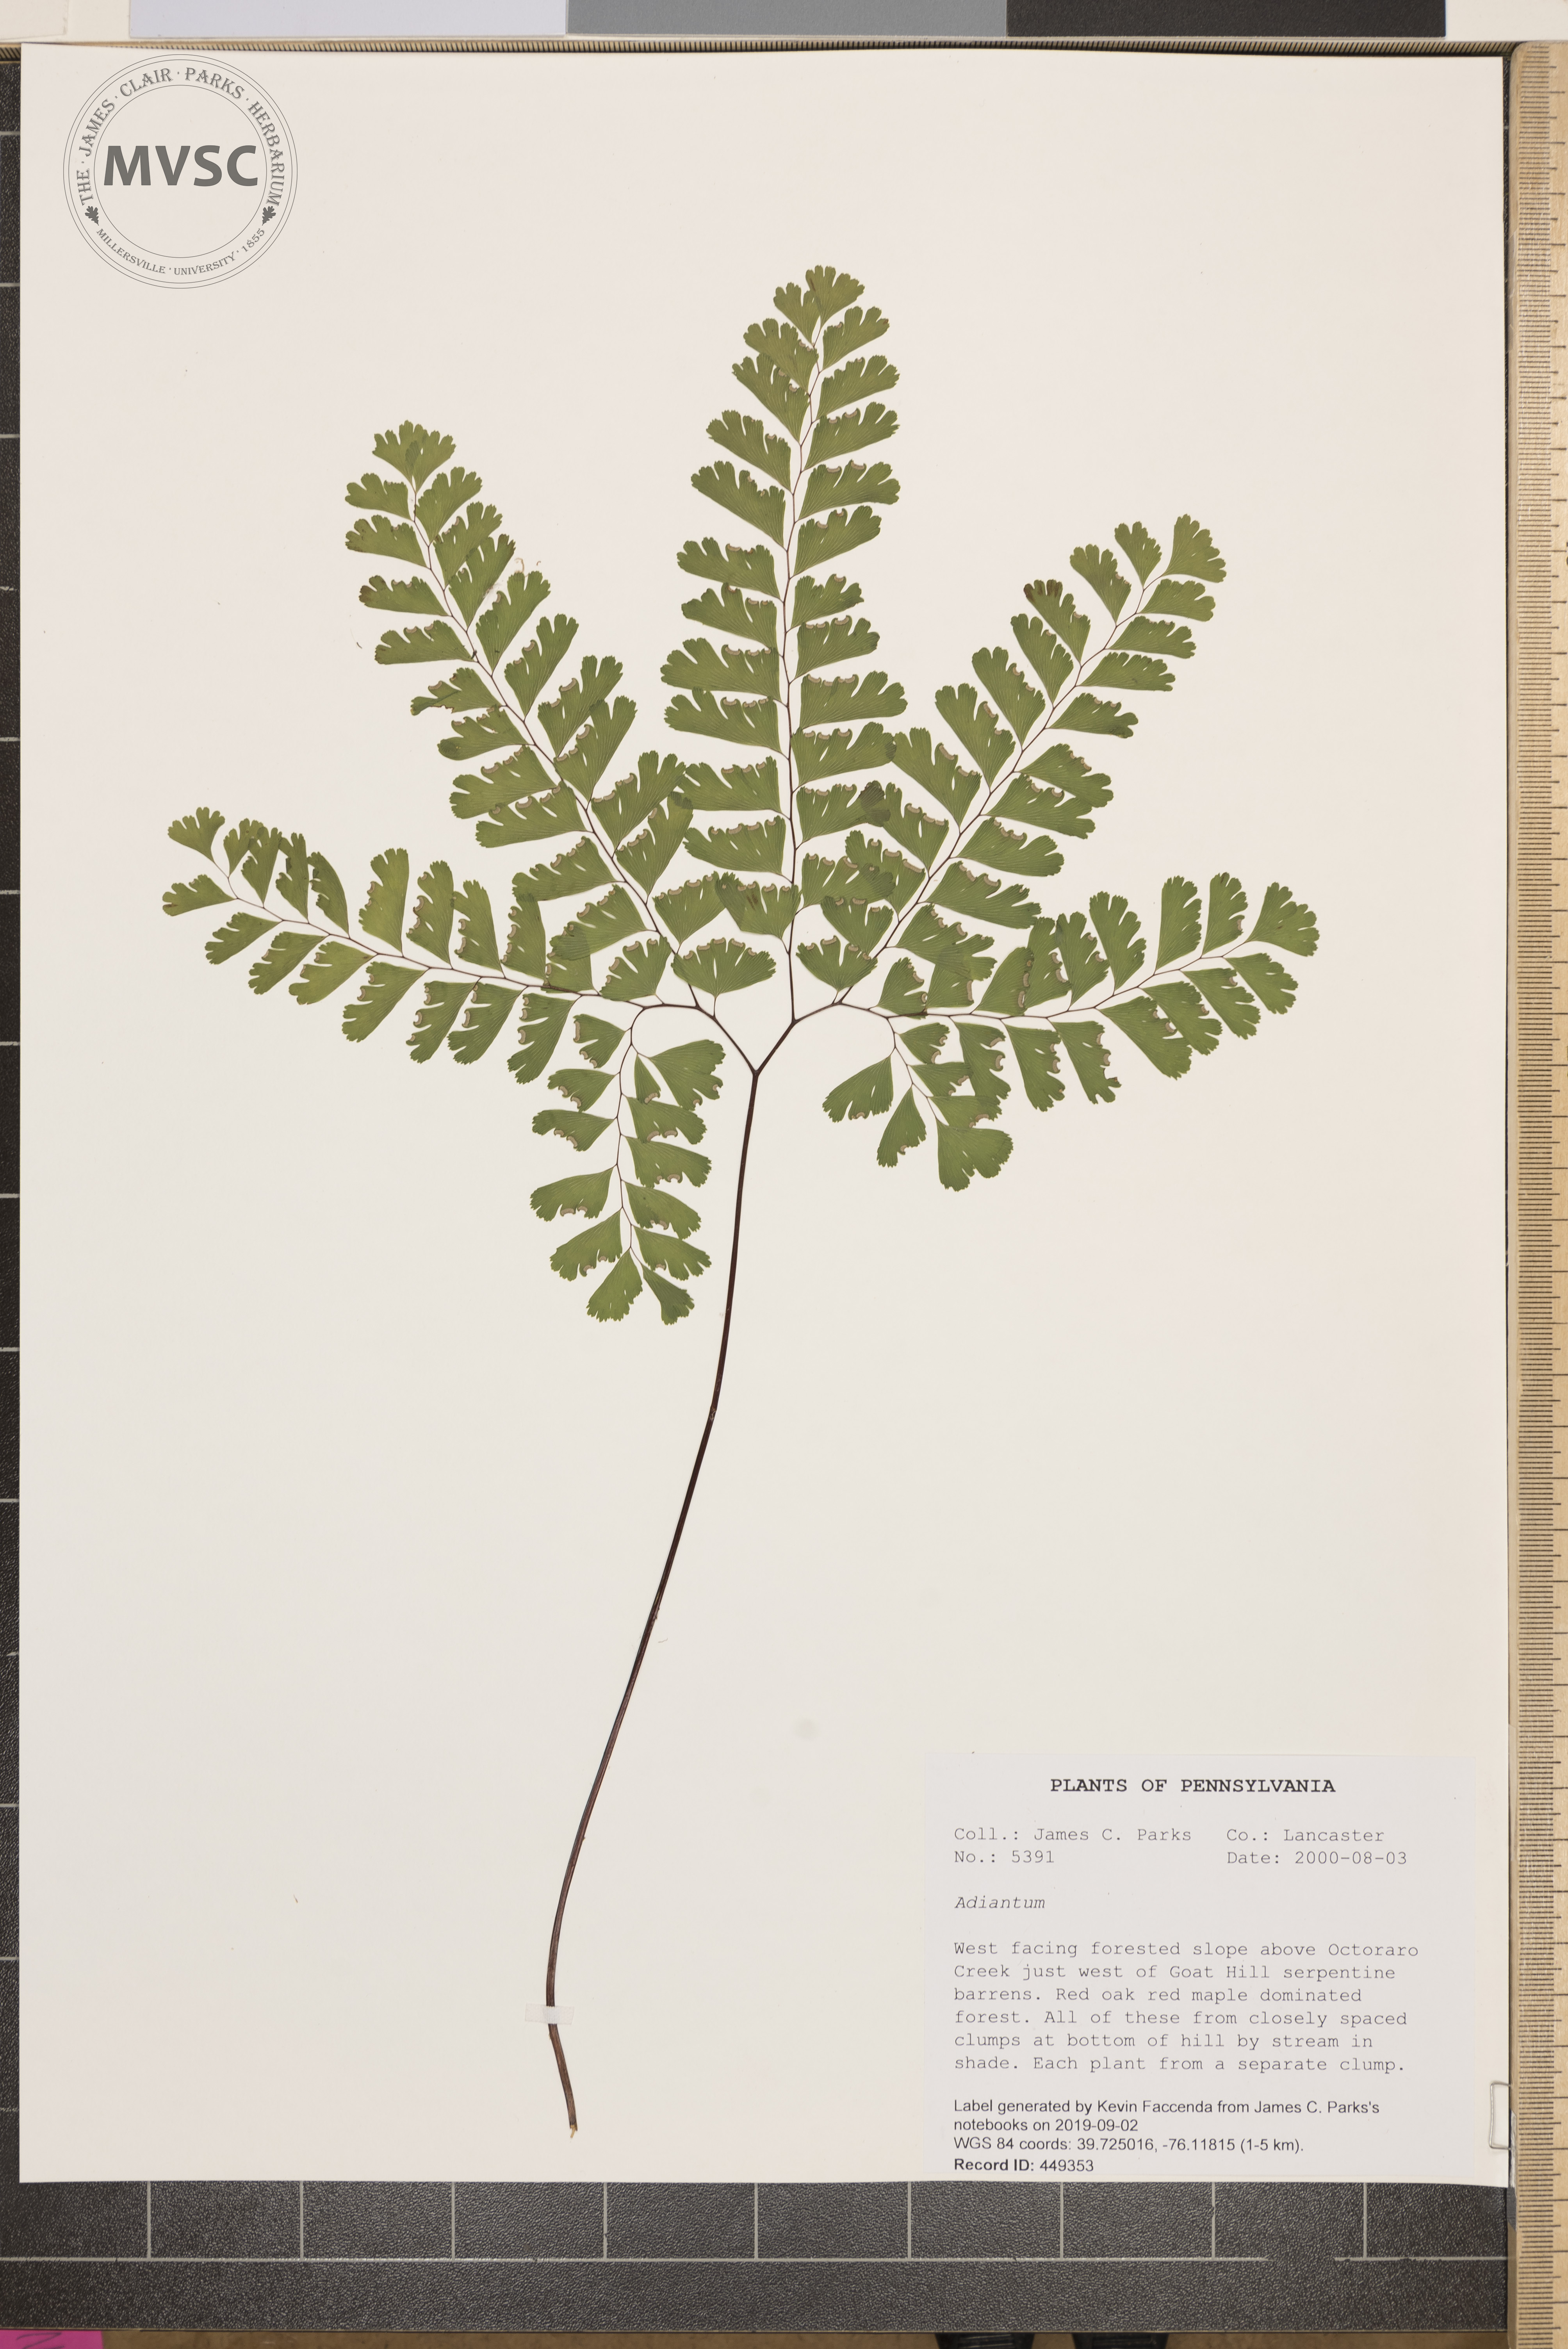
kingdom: Plantae
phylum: Tracheophyta
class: Polypodiopsida
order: Polypodiales
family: Pteridaceae
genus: Adiantum
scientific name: Adiantum
